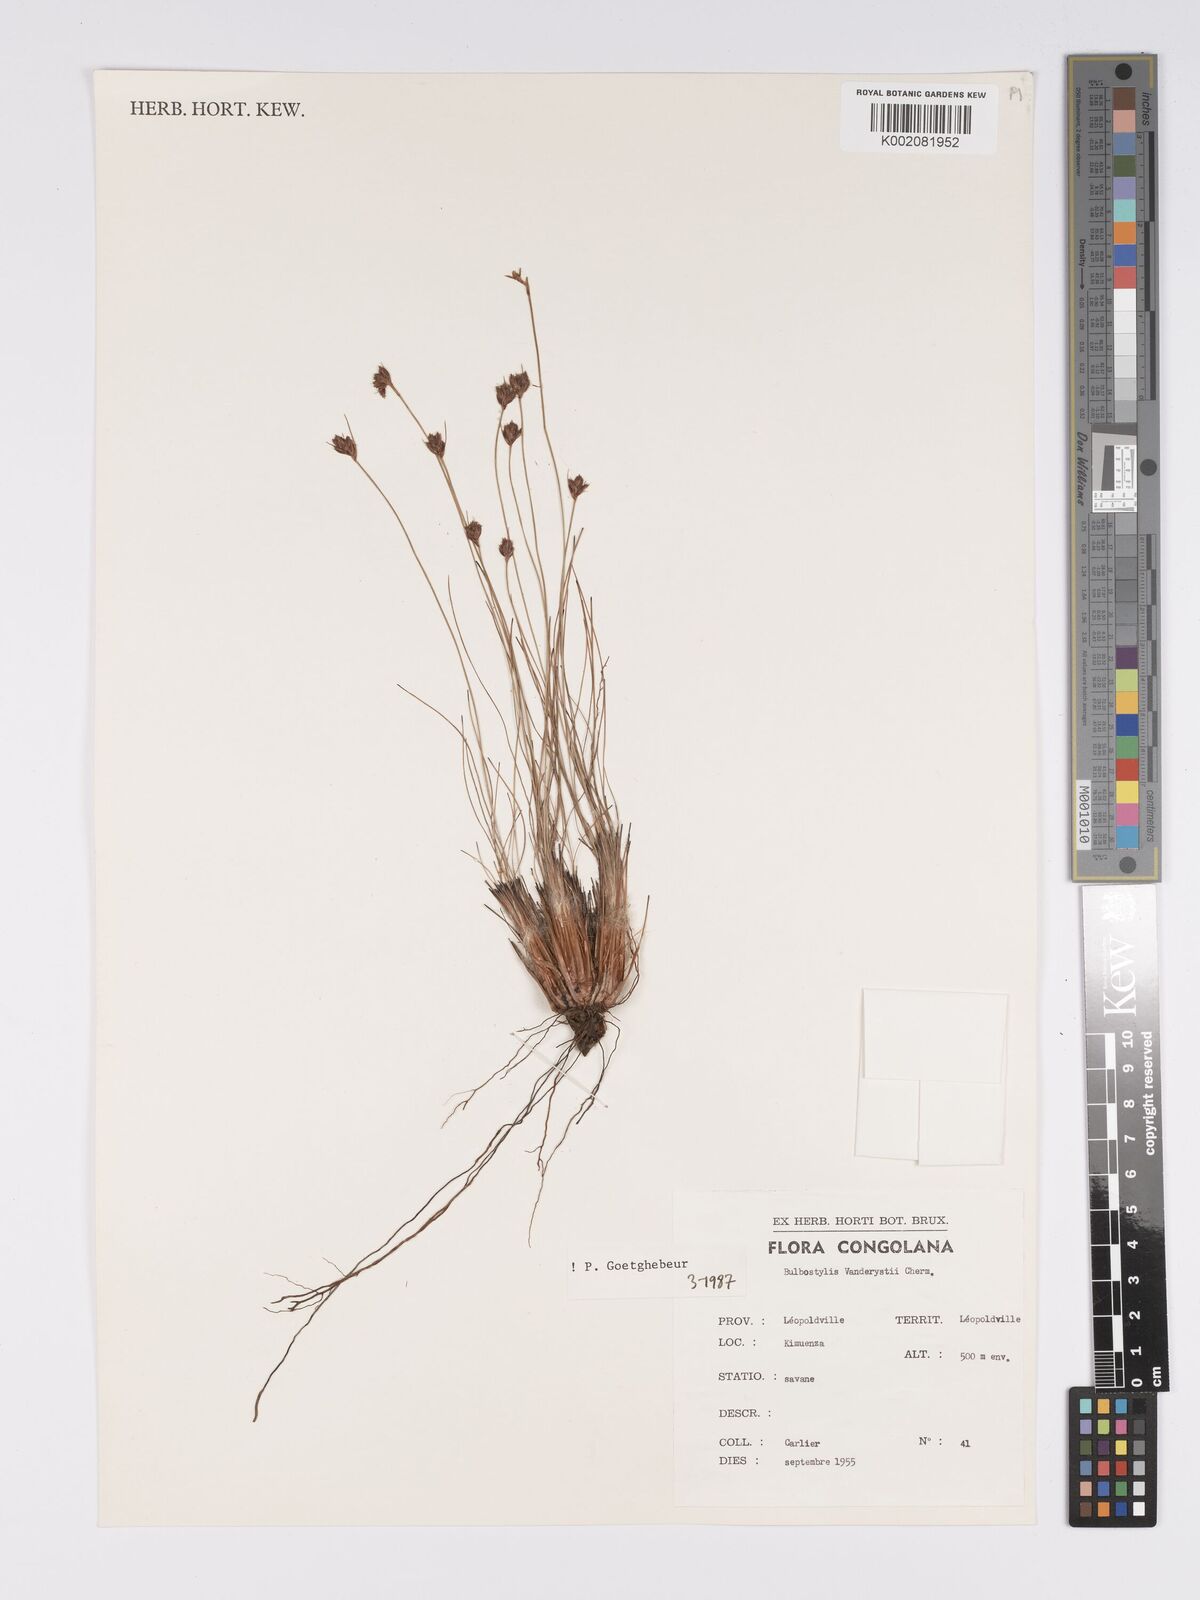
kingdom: Plantae
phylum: Tracheophyta
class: Liliopsida
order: Poales
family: Cyperaceae
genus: Bulbostylis
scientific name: Bulbostylis vanderystii
